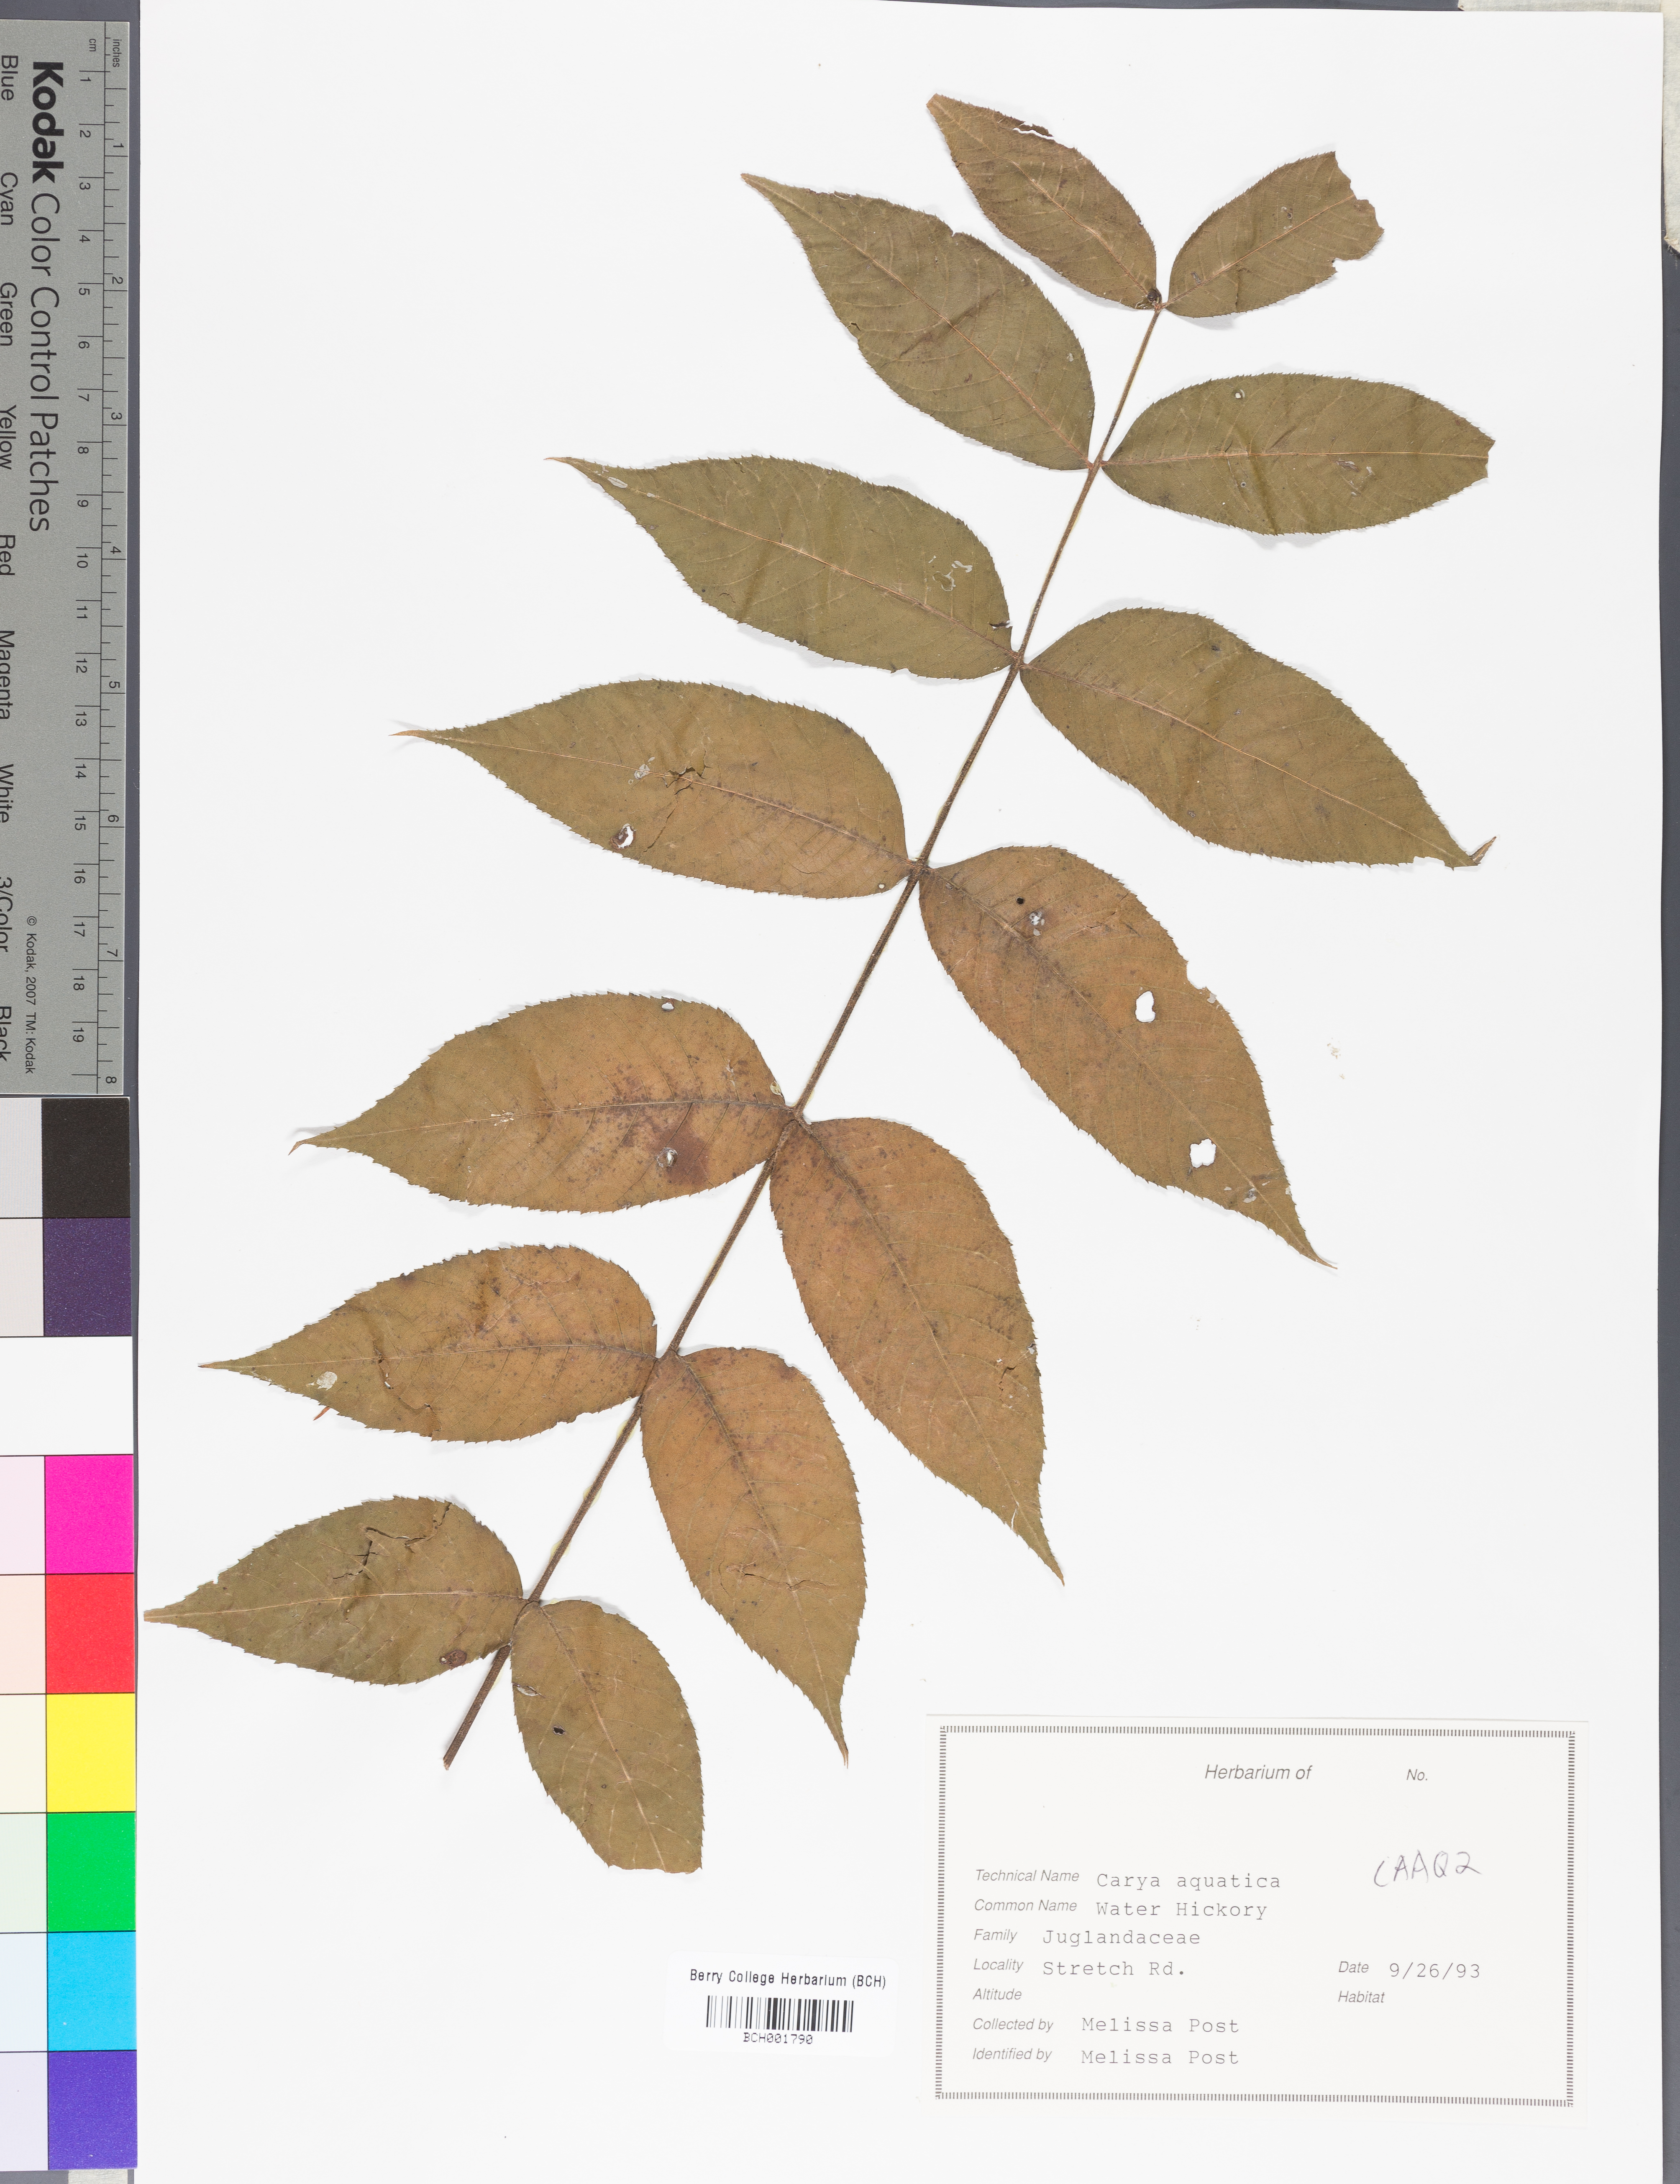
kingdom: Plantae
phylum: Tracheophyta
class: Magnoliopsida
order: Fagales
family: Juglandaceae
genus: Carya
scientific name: Carya aquatica
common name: Water hickory
